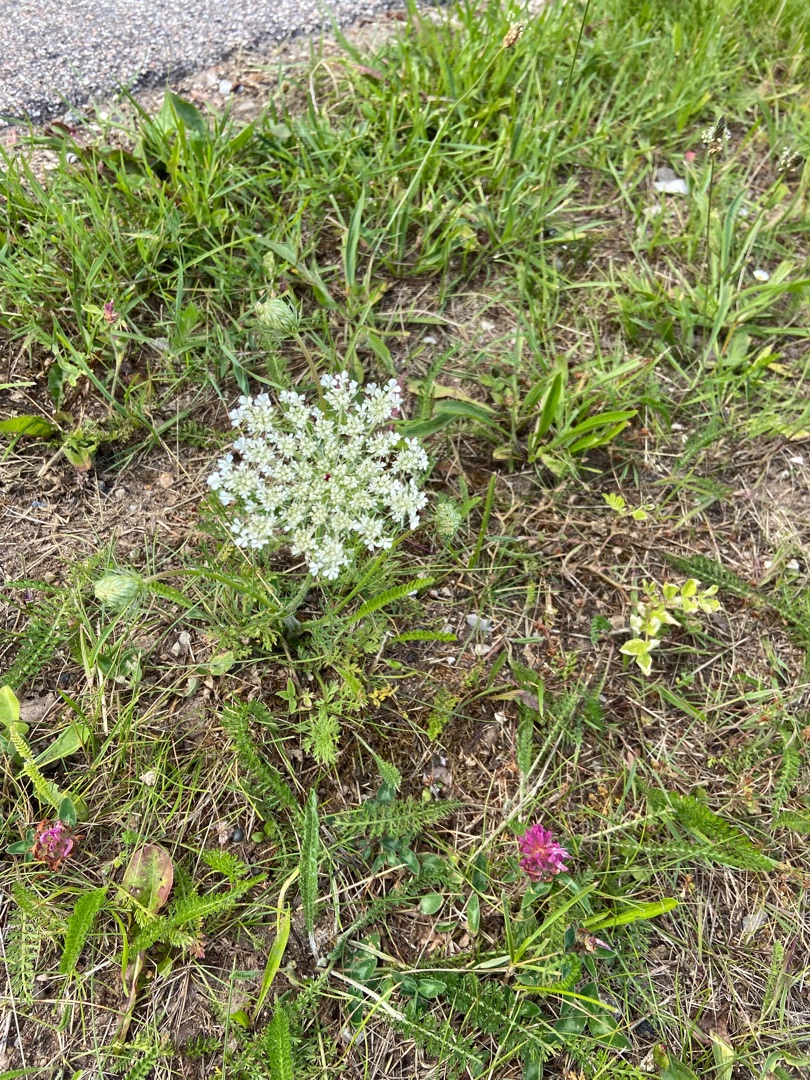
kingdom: Plantae
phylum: Tracheophyta
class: Magnoliopsida
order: Apiales
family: Apiaceae
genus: Daucus
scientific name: Daucus carota
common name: Gulerod
